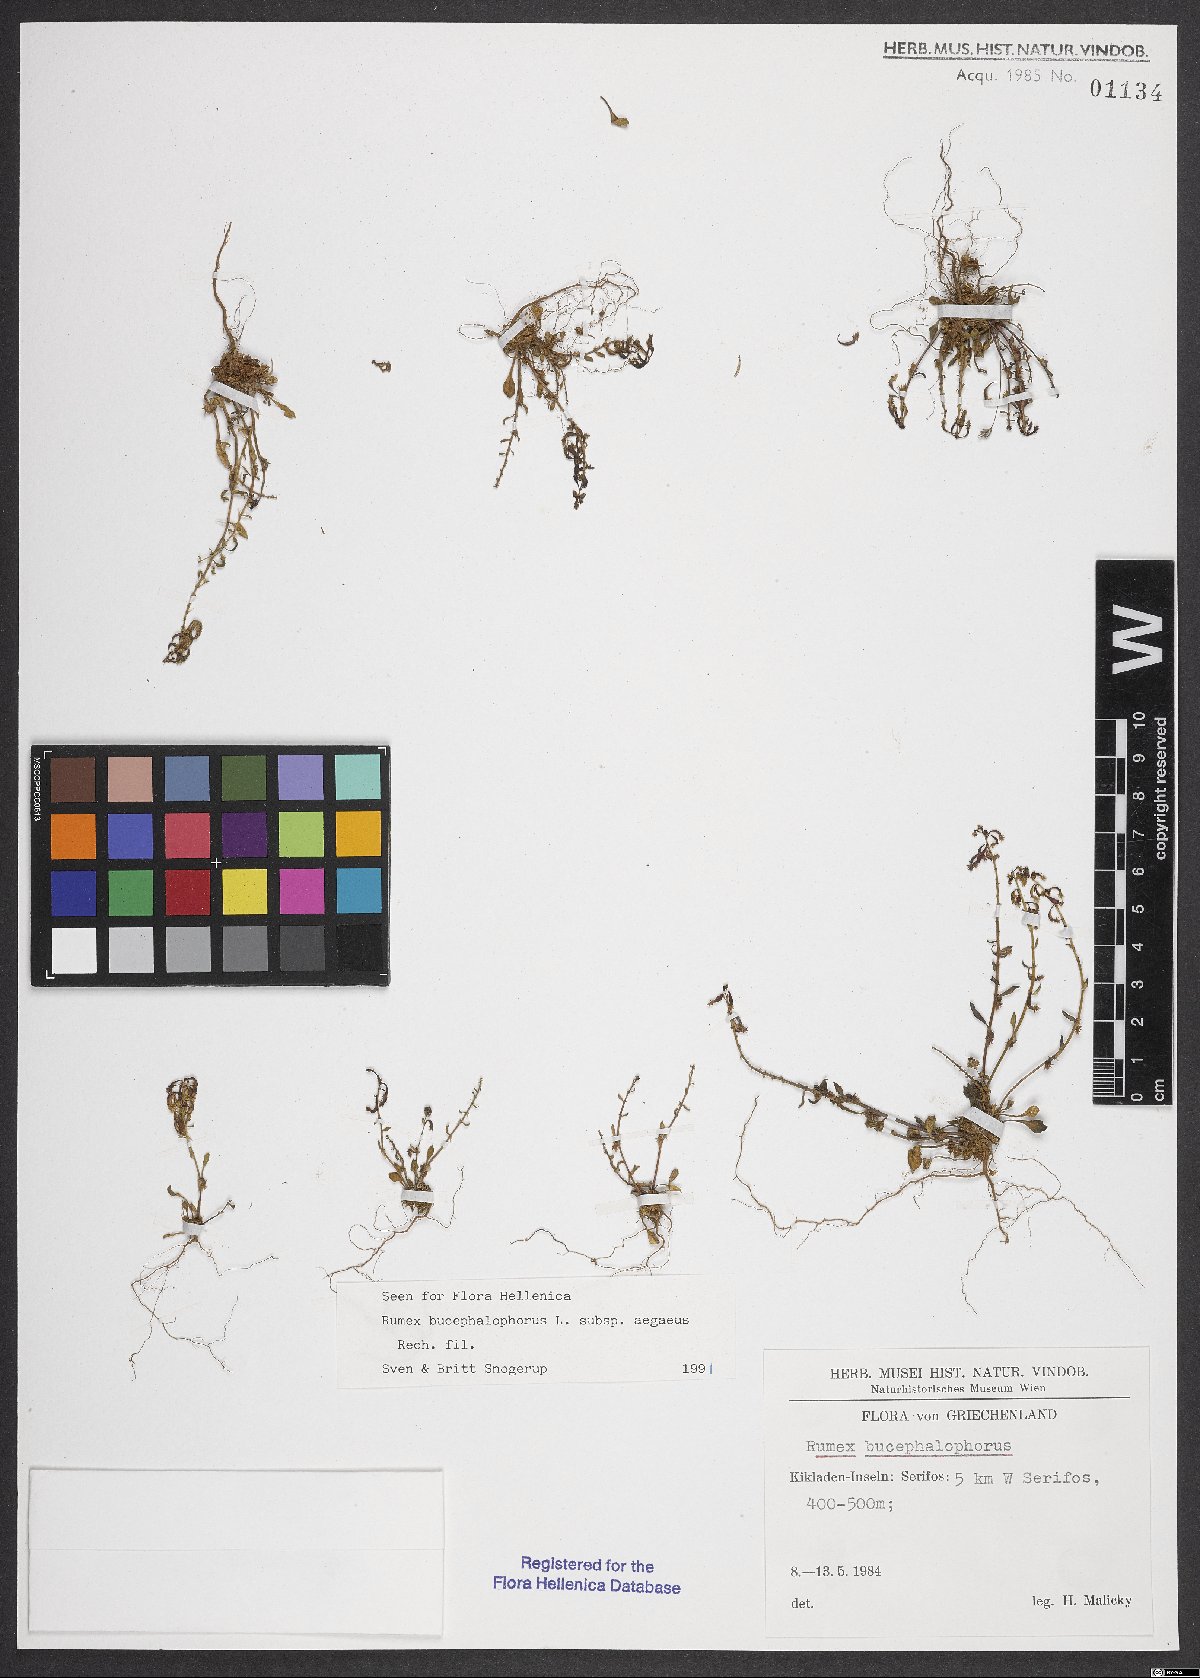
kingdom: Plantae
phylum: Tracheophyta
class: Magnoliopsida
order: Caryophyllales
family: Polygonaceae
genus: Rumex
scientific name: Rumex bucephalophorus
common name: Red dock
